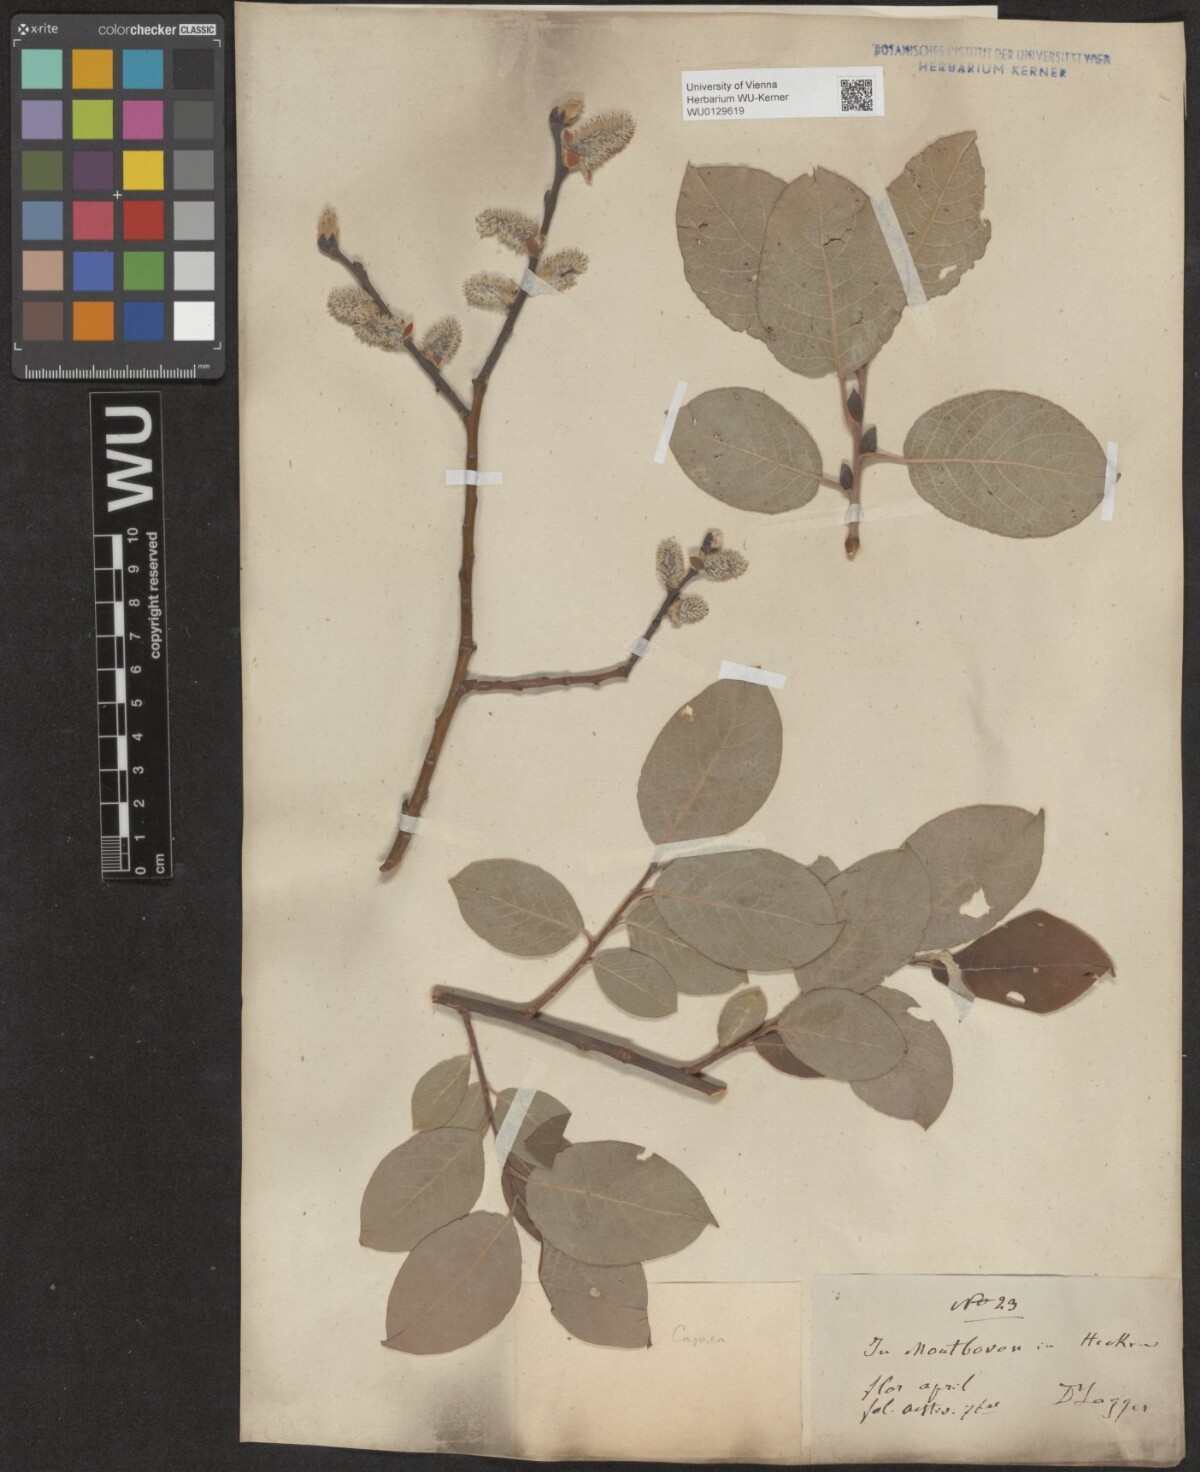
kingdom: Plantae
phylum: Tracheophyta
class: Magnoliopsida
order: Malpighiales
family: Salicaceae
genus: Salix
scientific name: Salix caprea
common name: Goat willow
